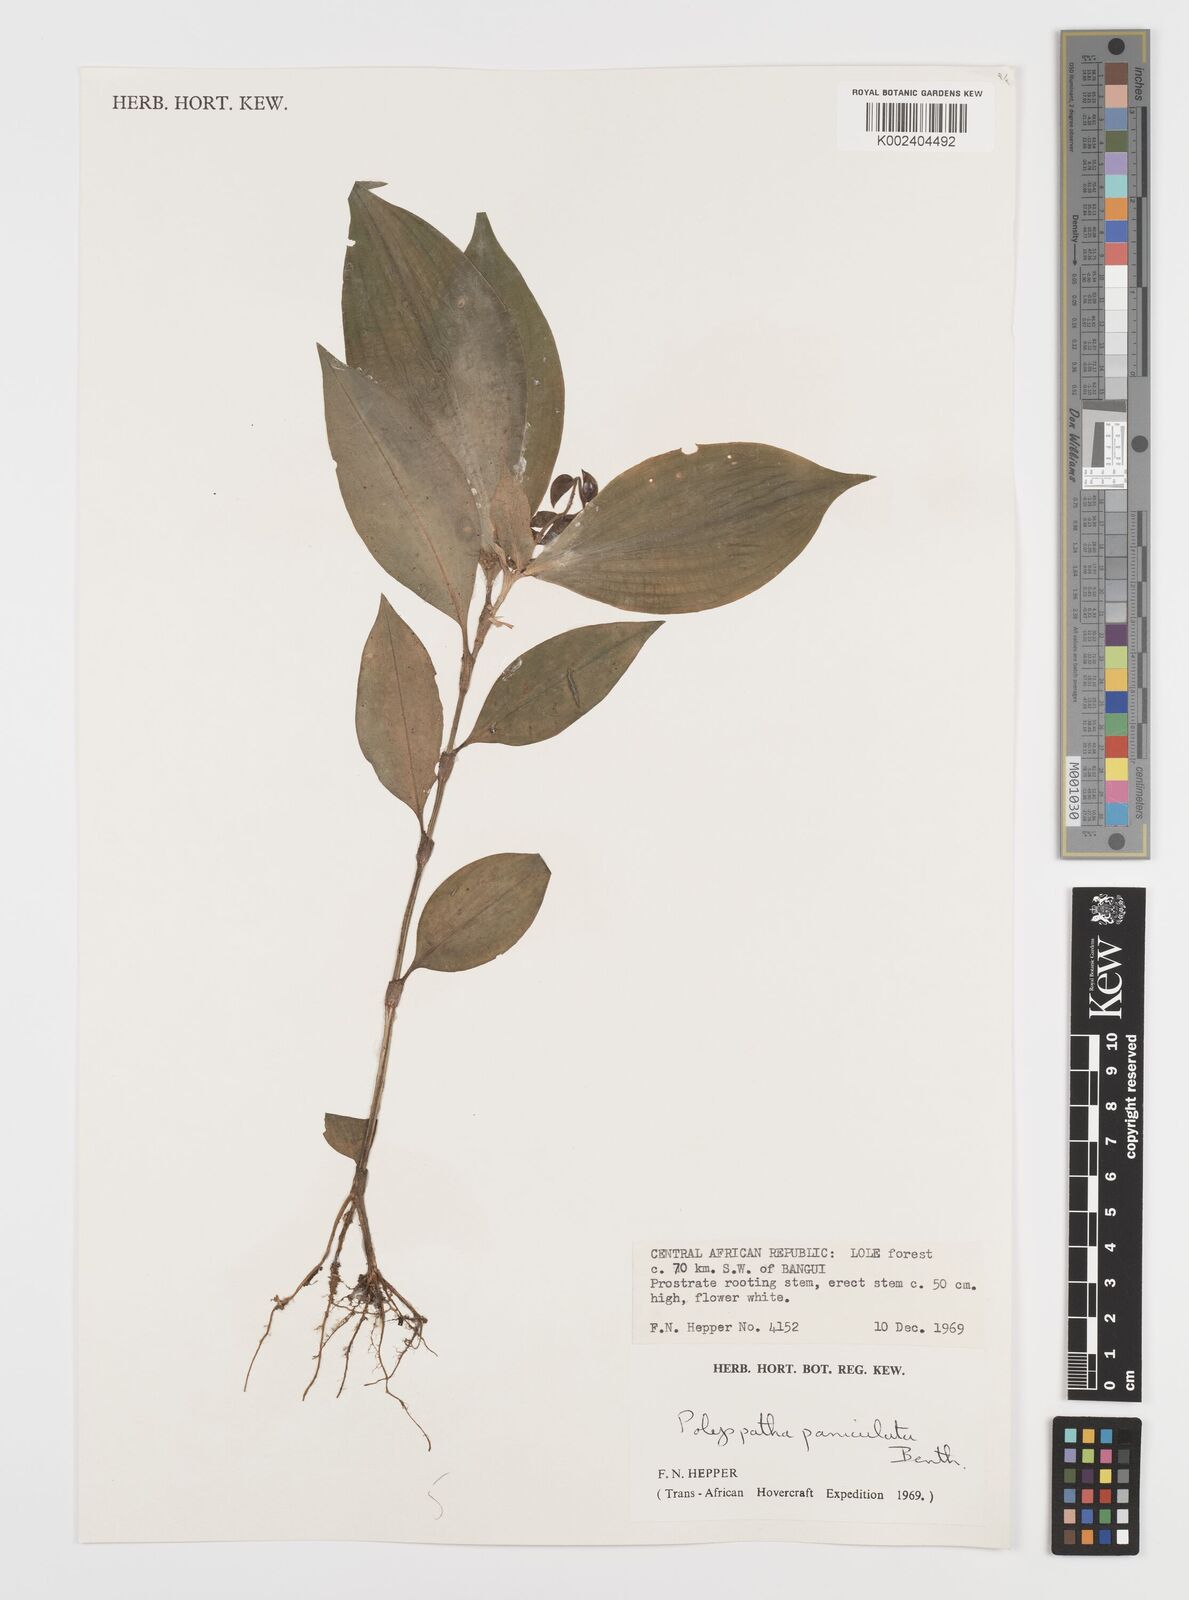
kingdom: Plantae
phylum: Tracheophyta
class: Liliopsida
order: Commelinales
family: Commelinaceae
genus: Polyspatha
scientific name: Polyspatha paniculata
